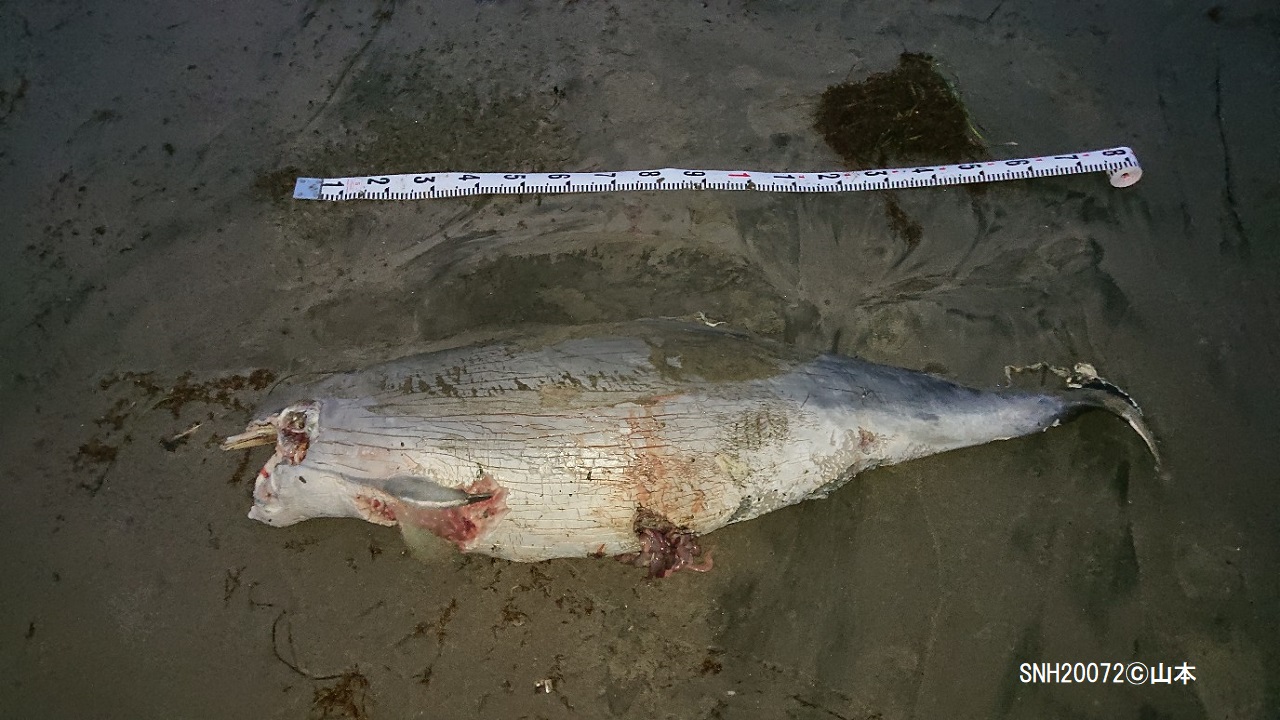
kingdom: Animalia
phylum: Chordata
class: Mammalia
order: Cetacea
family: Phocoenidae
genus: Phocoena
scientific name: Phocoena phocoena
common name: Harbour porpoise
